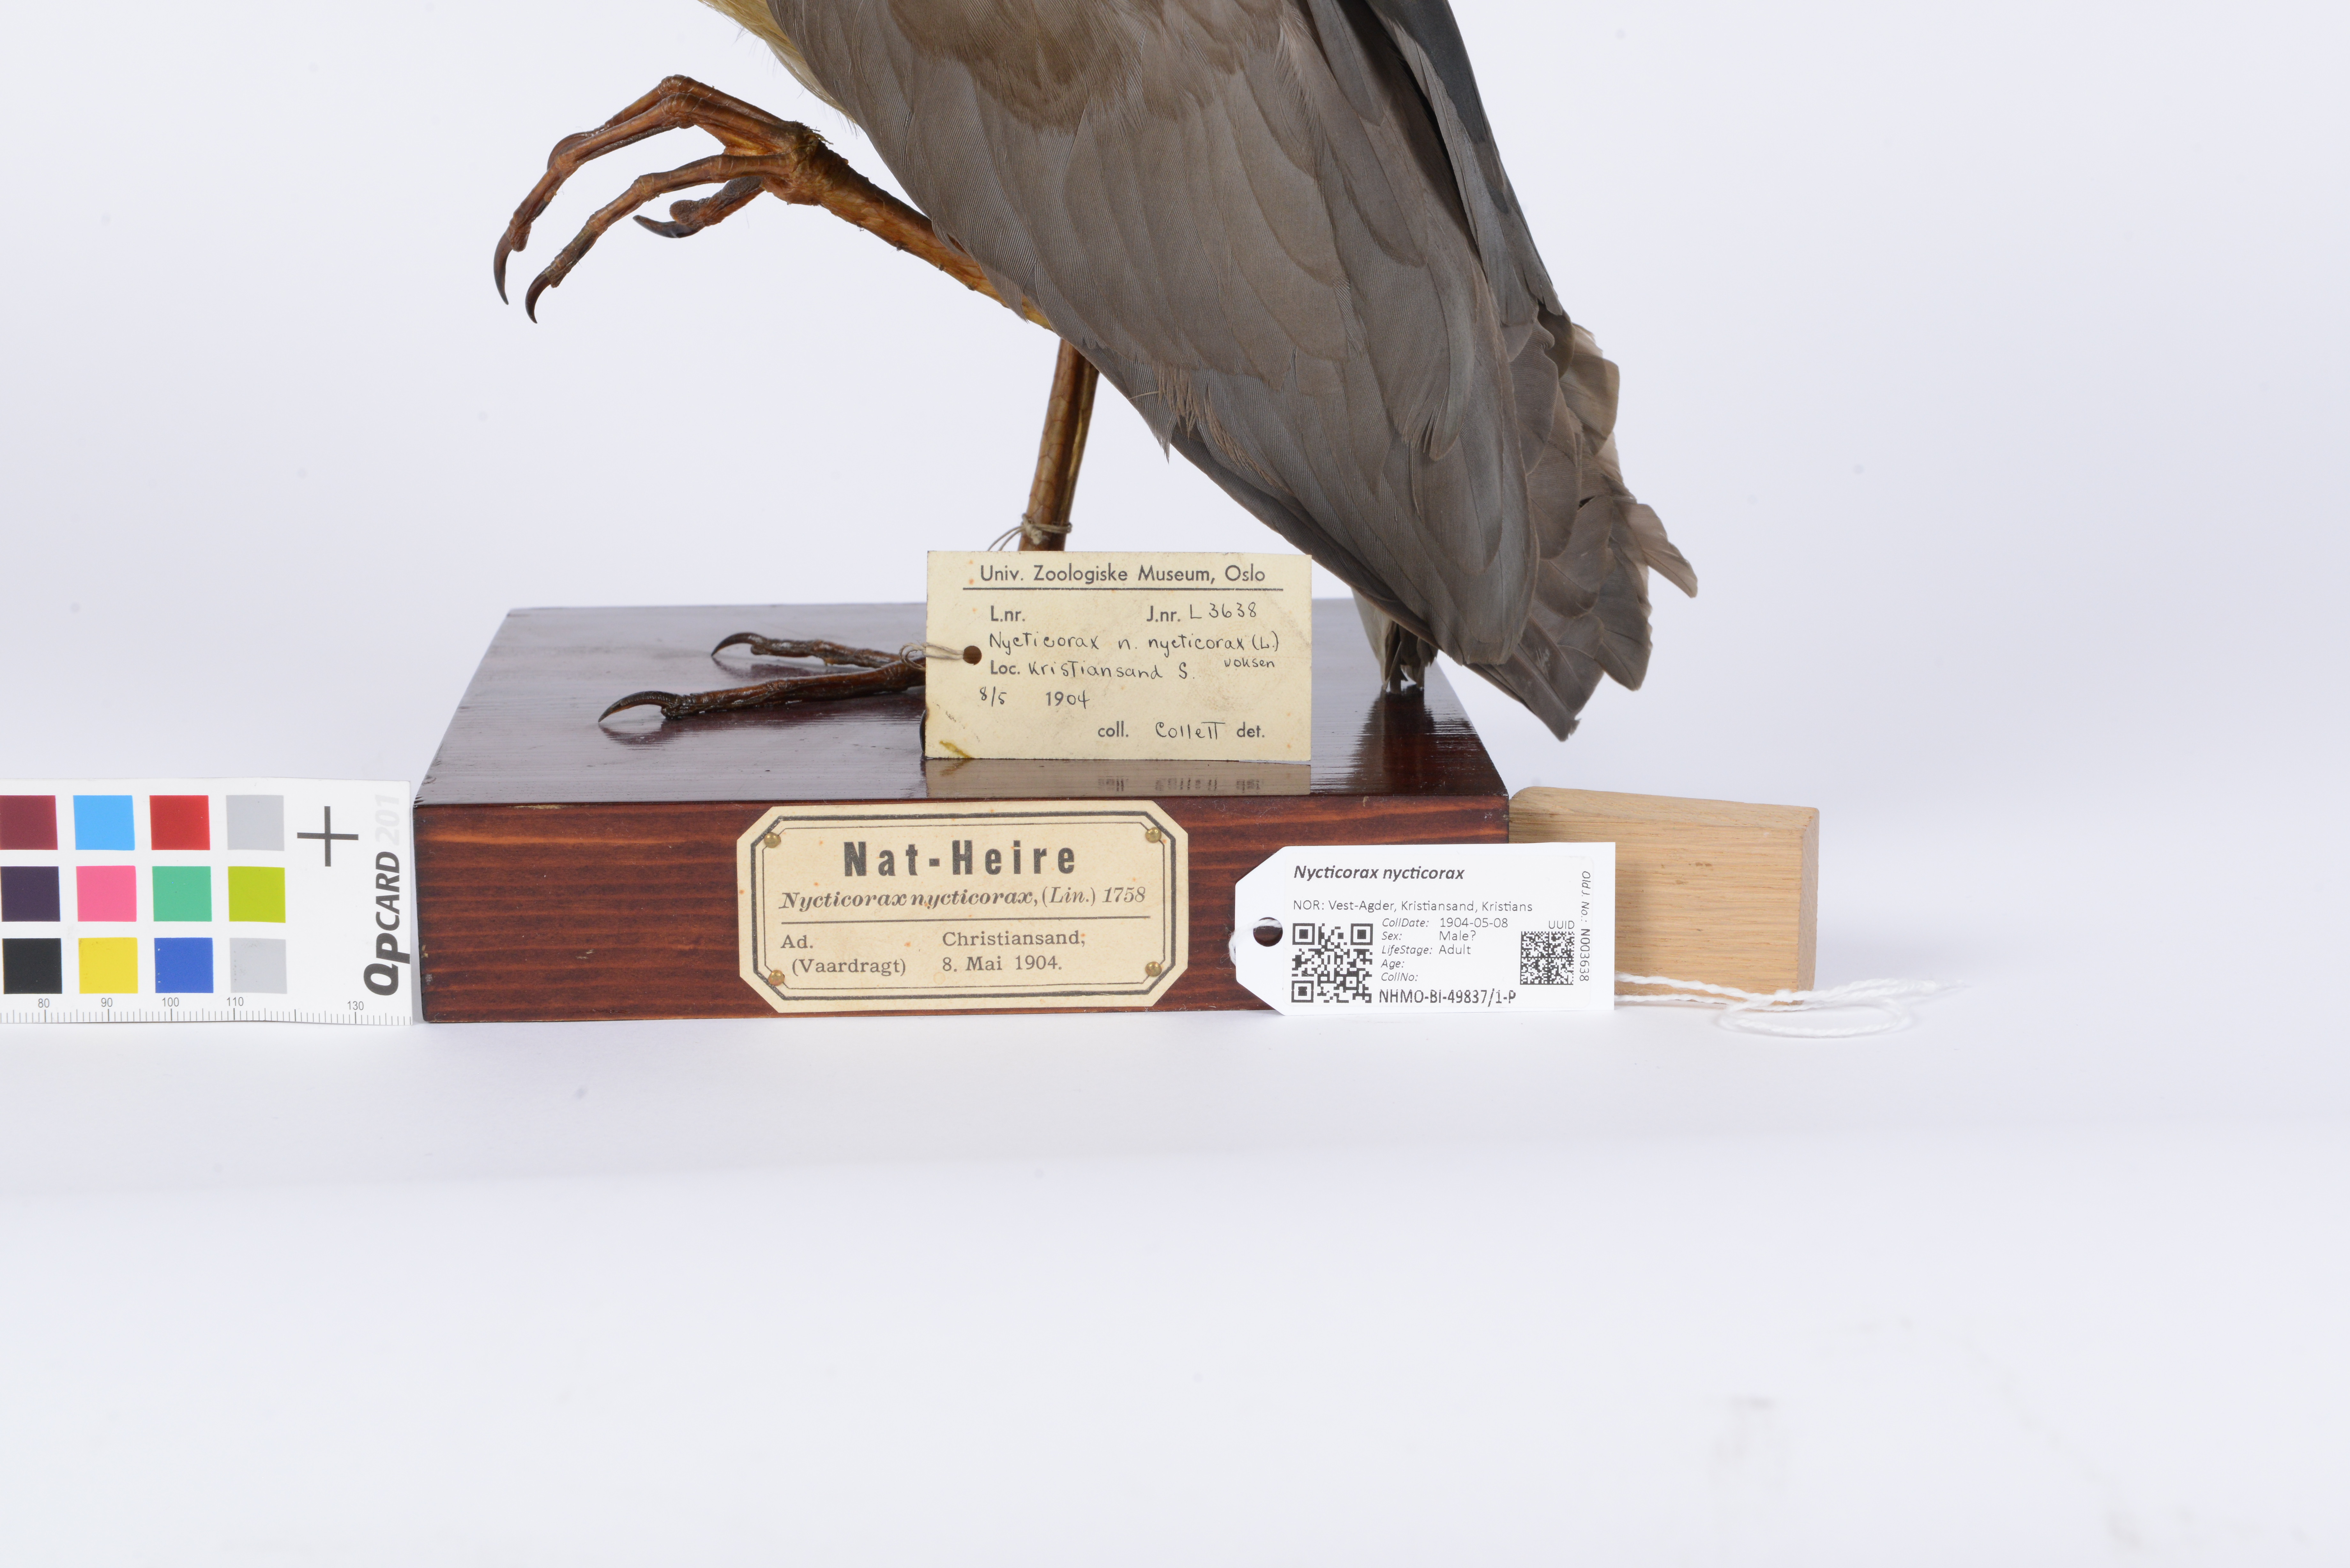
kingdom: Animalia
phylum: Chordata
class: Aves
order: Pelecaniformes
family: Ardeidae
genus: Nycticorax
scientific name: Nycticorax nycticorax
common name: Black-crowned night heron
